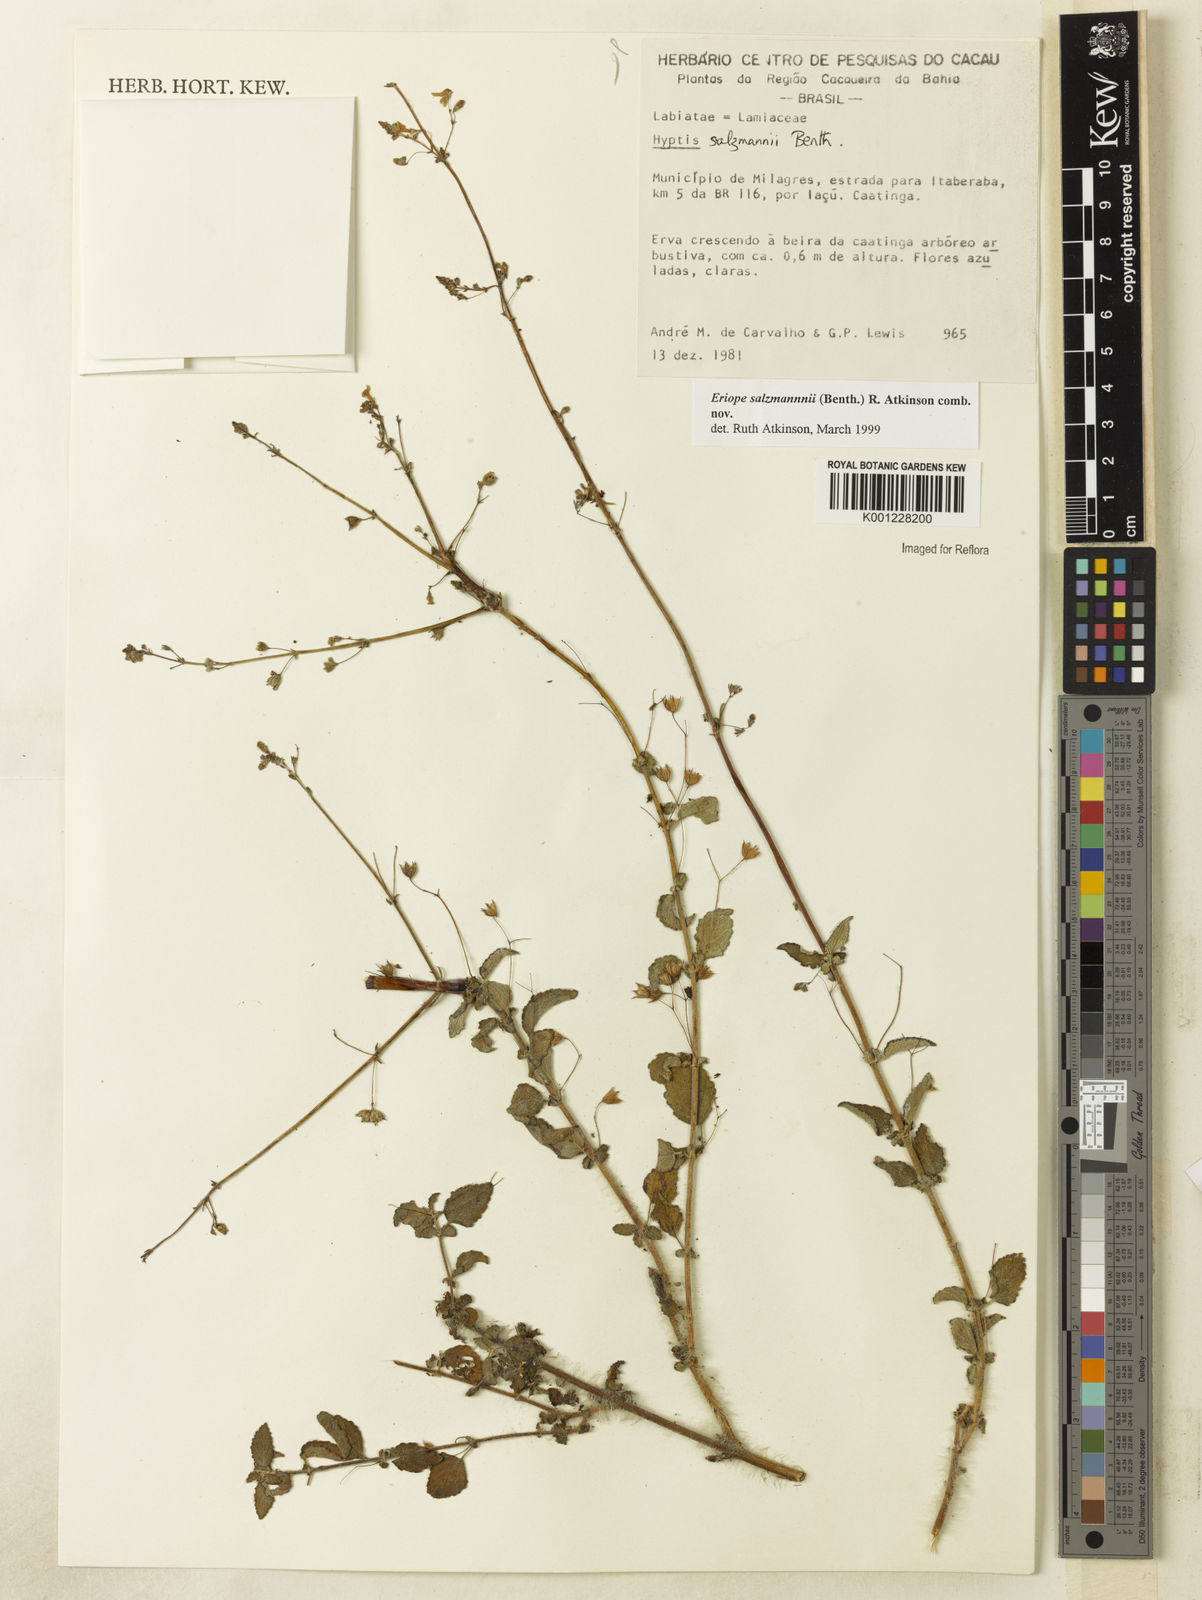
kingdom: Plantae
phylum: Tracheophyta
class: Magnoliopsida
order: Lamiales
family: Lamiaceae
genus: Hypenia
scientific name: Hypenia salzmannii
